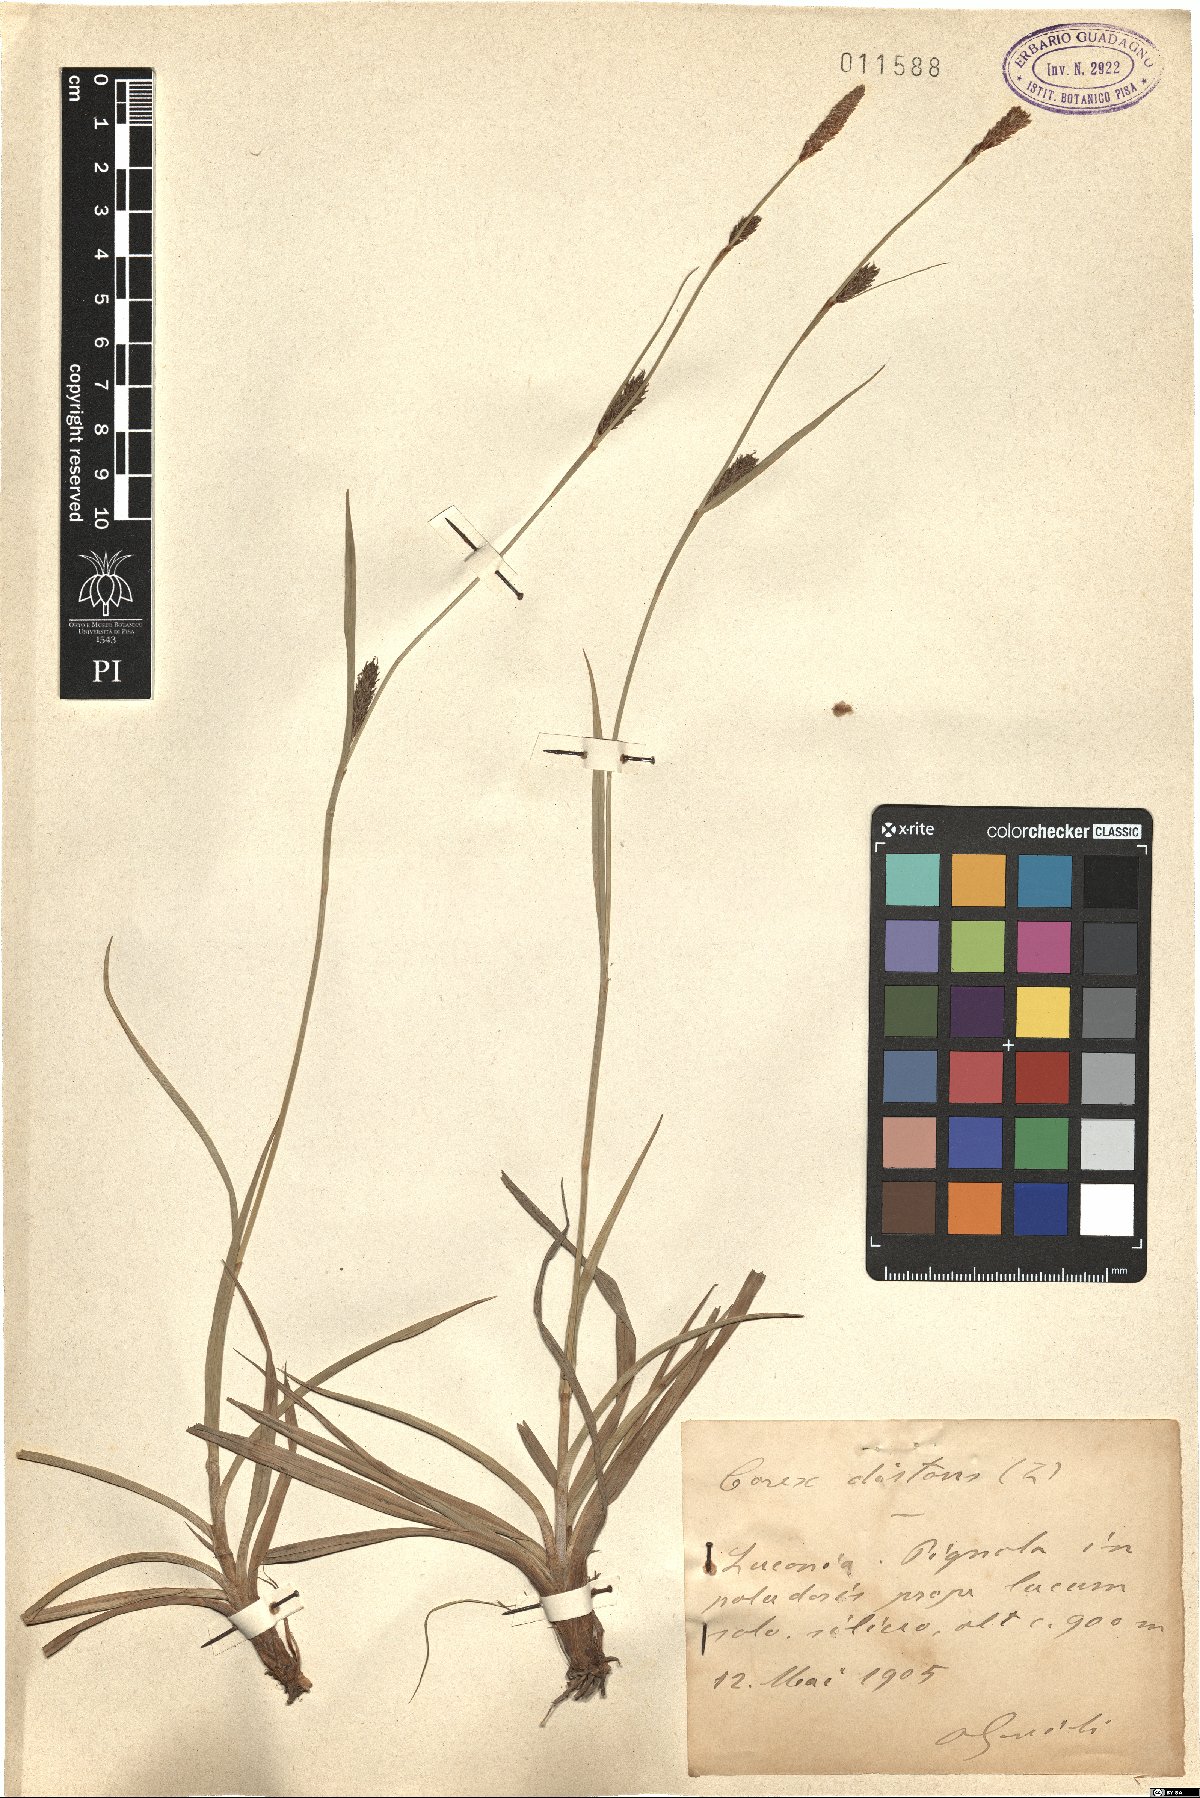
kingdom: Plantae
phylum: Tracheophyta
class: Liliopsida
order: Poales
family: Cyperaceae
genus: Carex
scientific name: Carex distans
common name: Distant sedge
